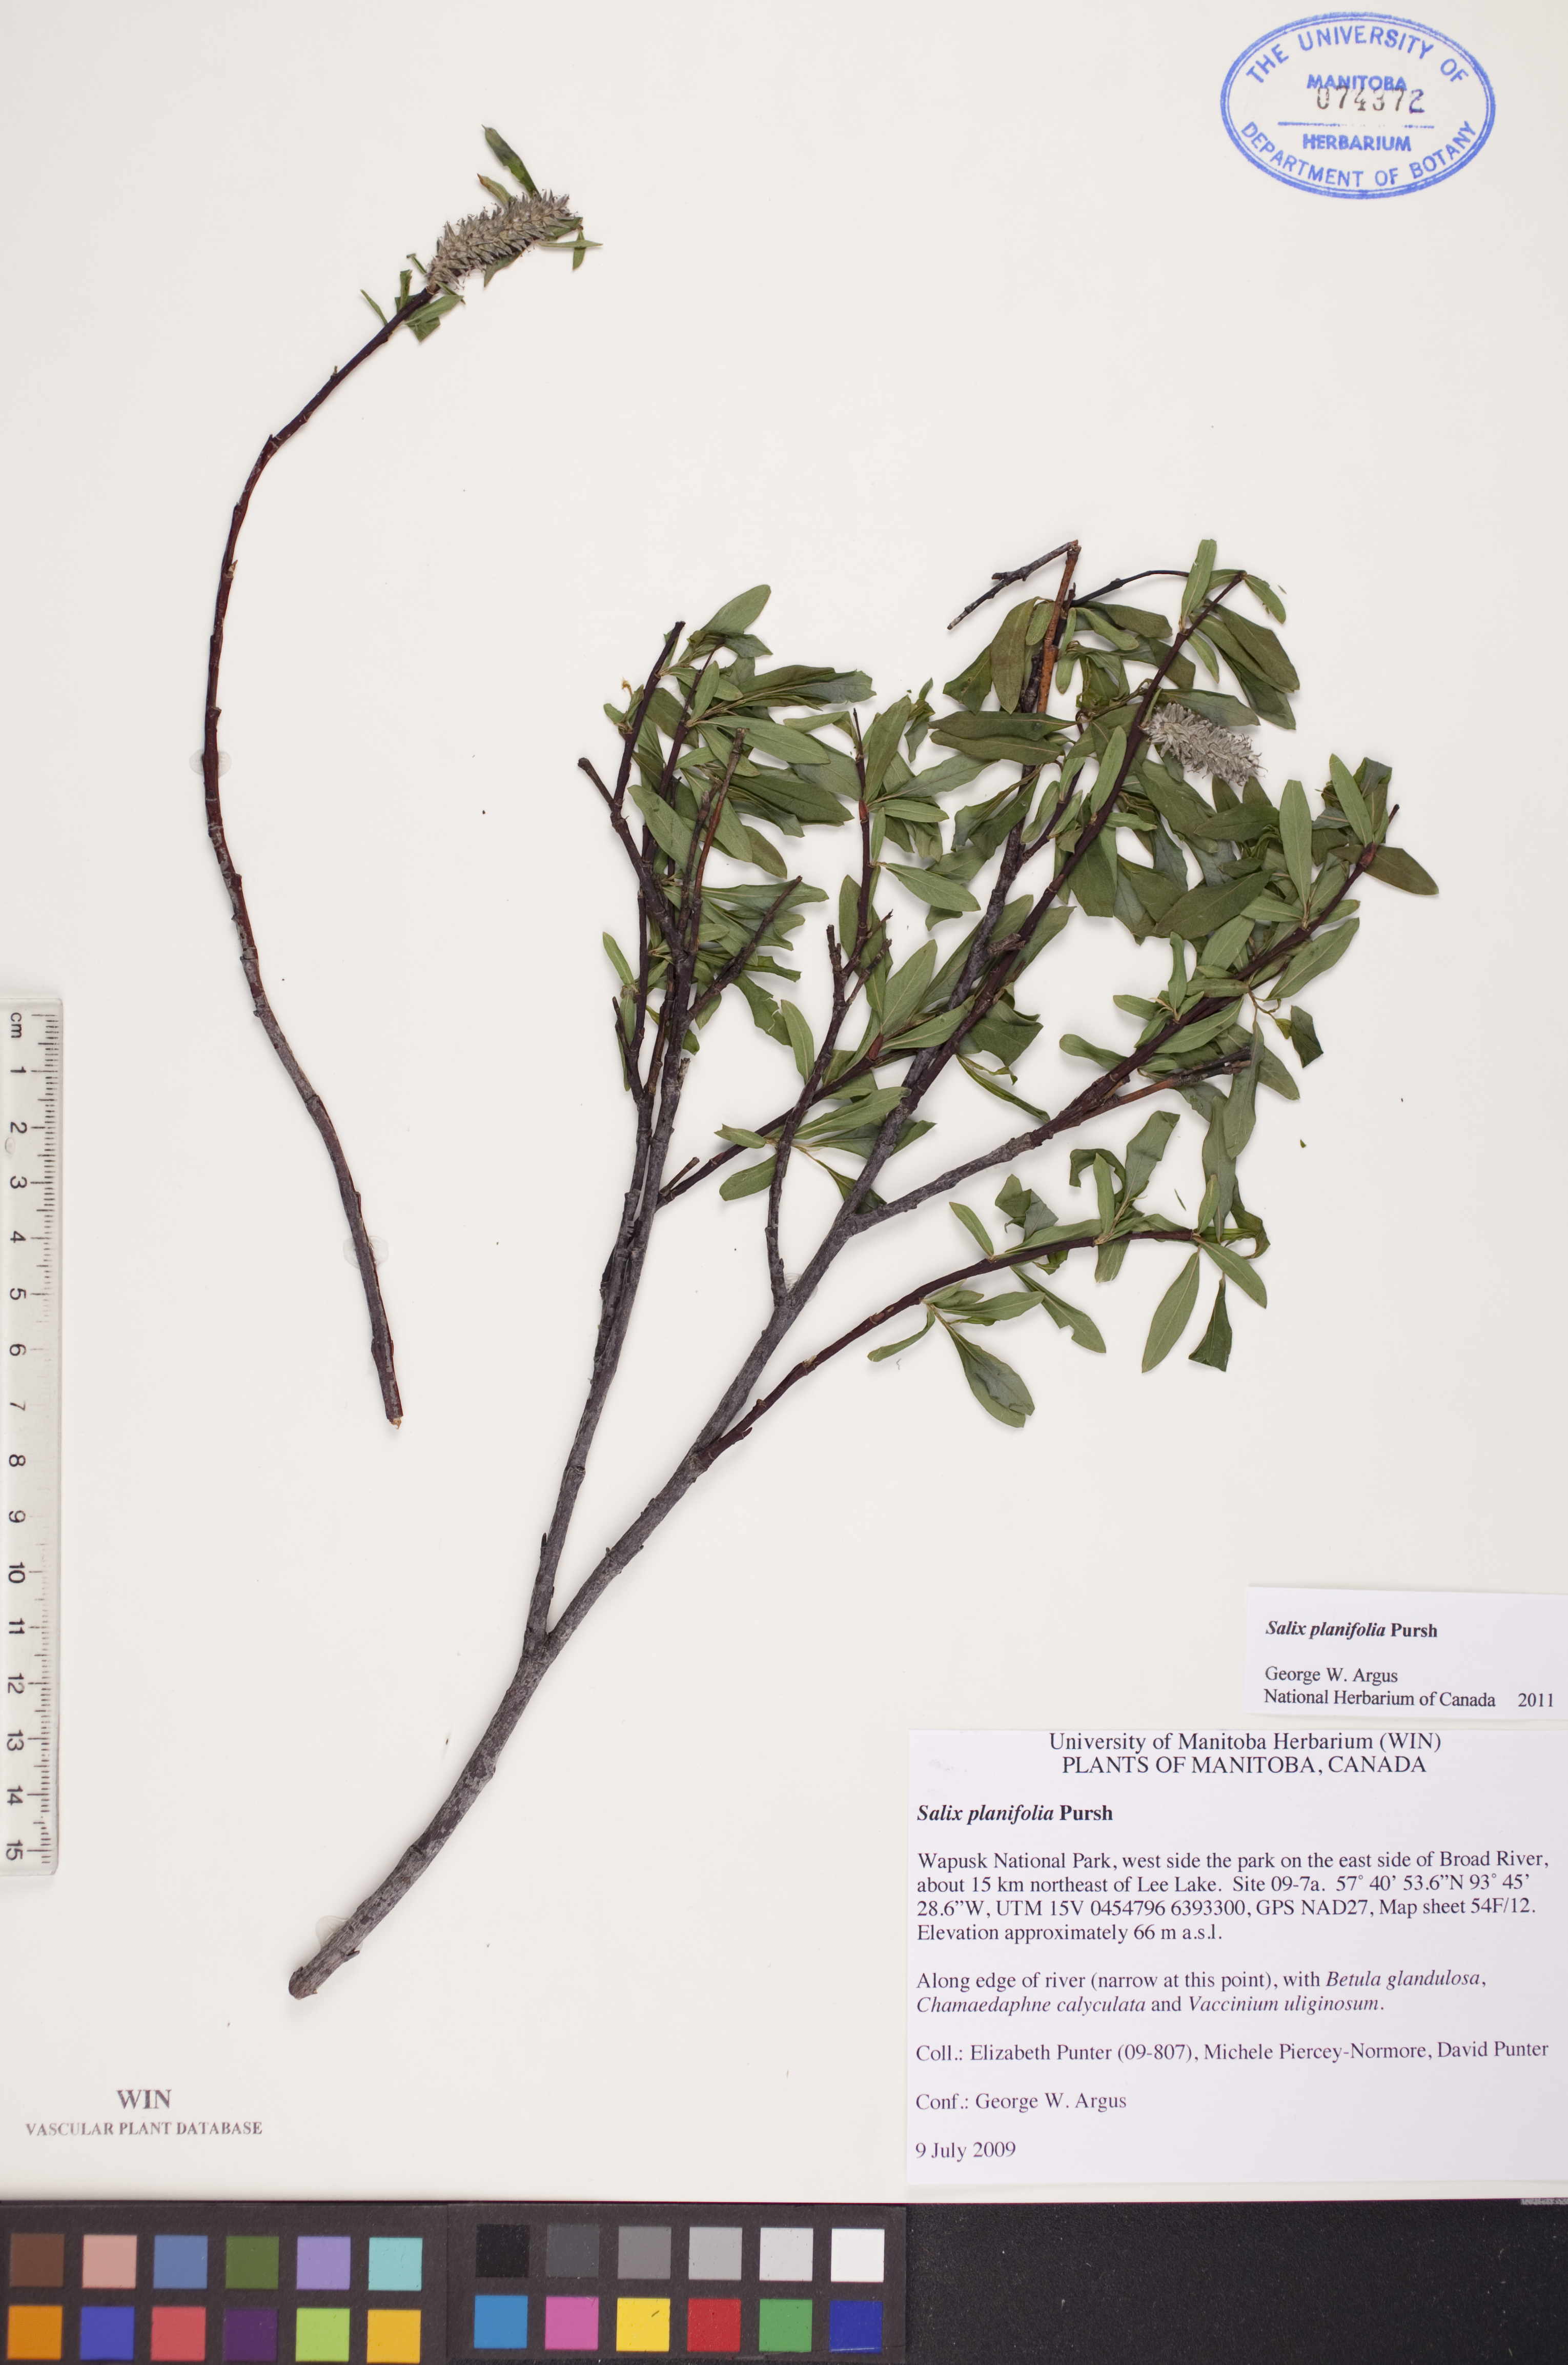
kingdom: Plantae
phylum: Tracheophyta
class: Magnoliopsida
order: Malpighiales
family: Salicaceae
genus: Salix
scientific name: Salix planifolia
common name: Mountain willow
